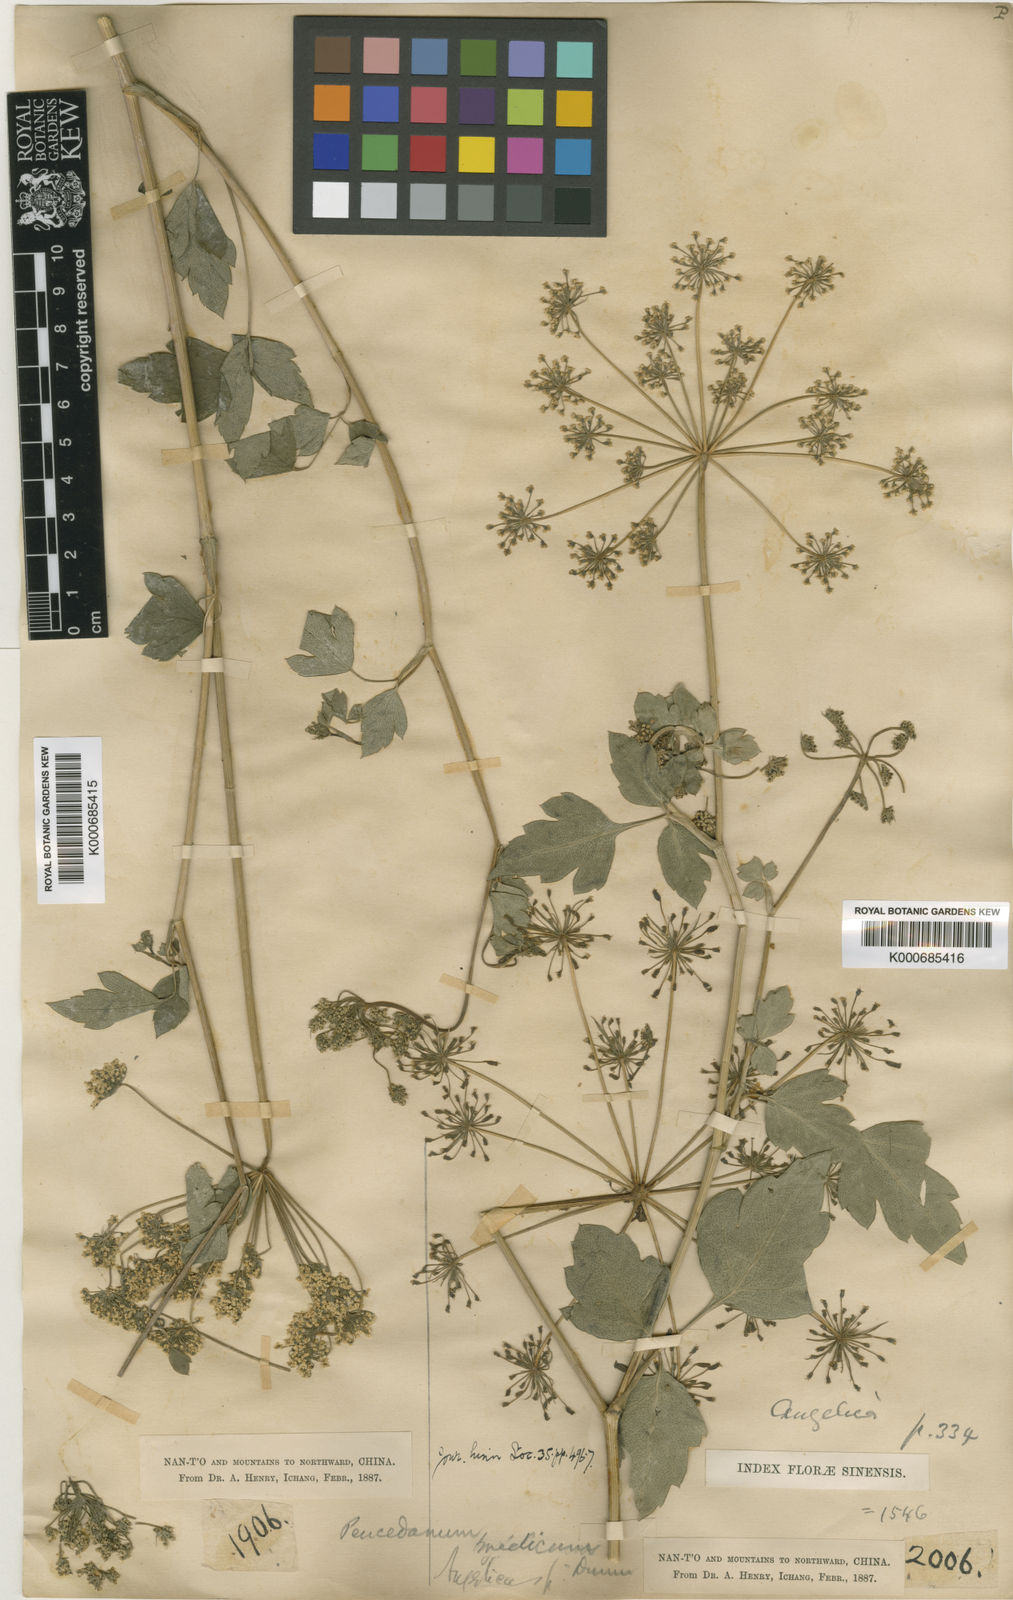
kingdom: Plantae
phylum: Tracheophyta
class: Magnoliopsida
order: Apiales
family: Apiaceae
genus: Peucedanum
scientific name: Peucedanum medicum
